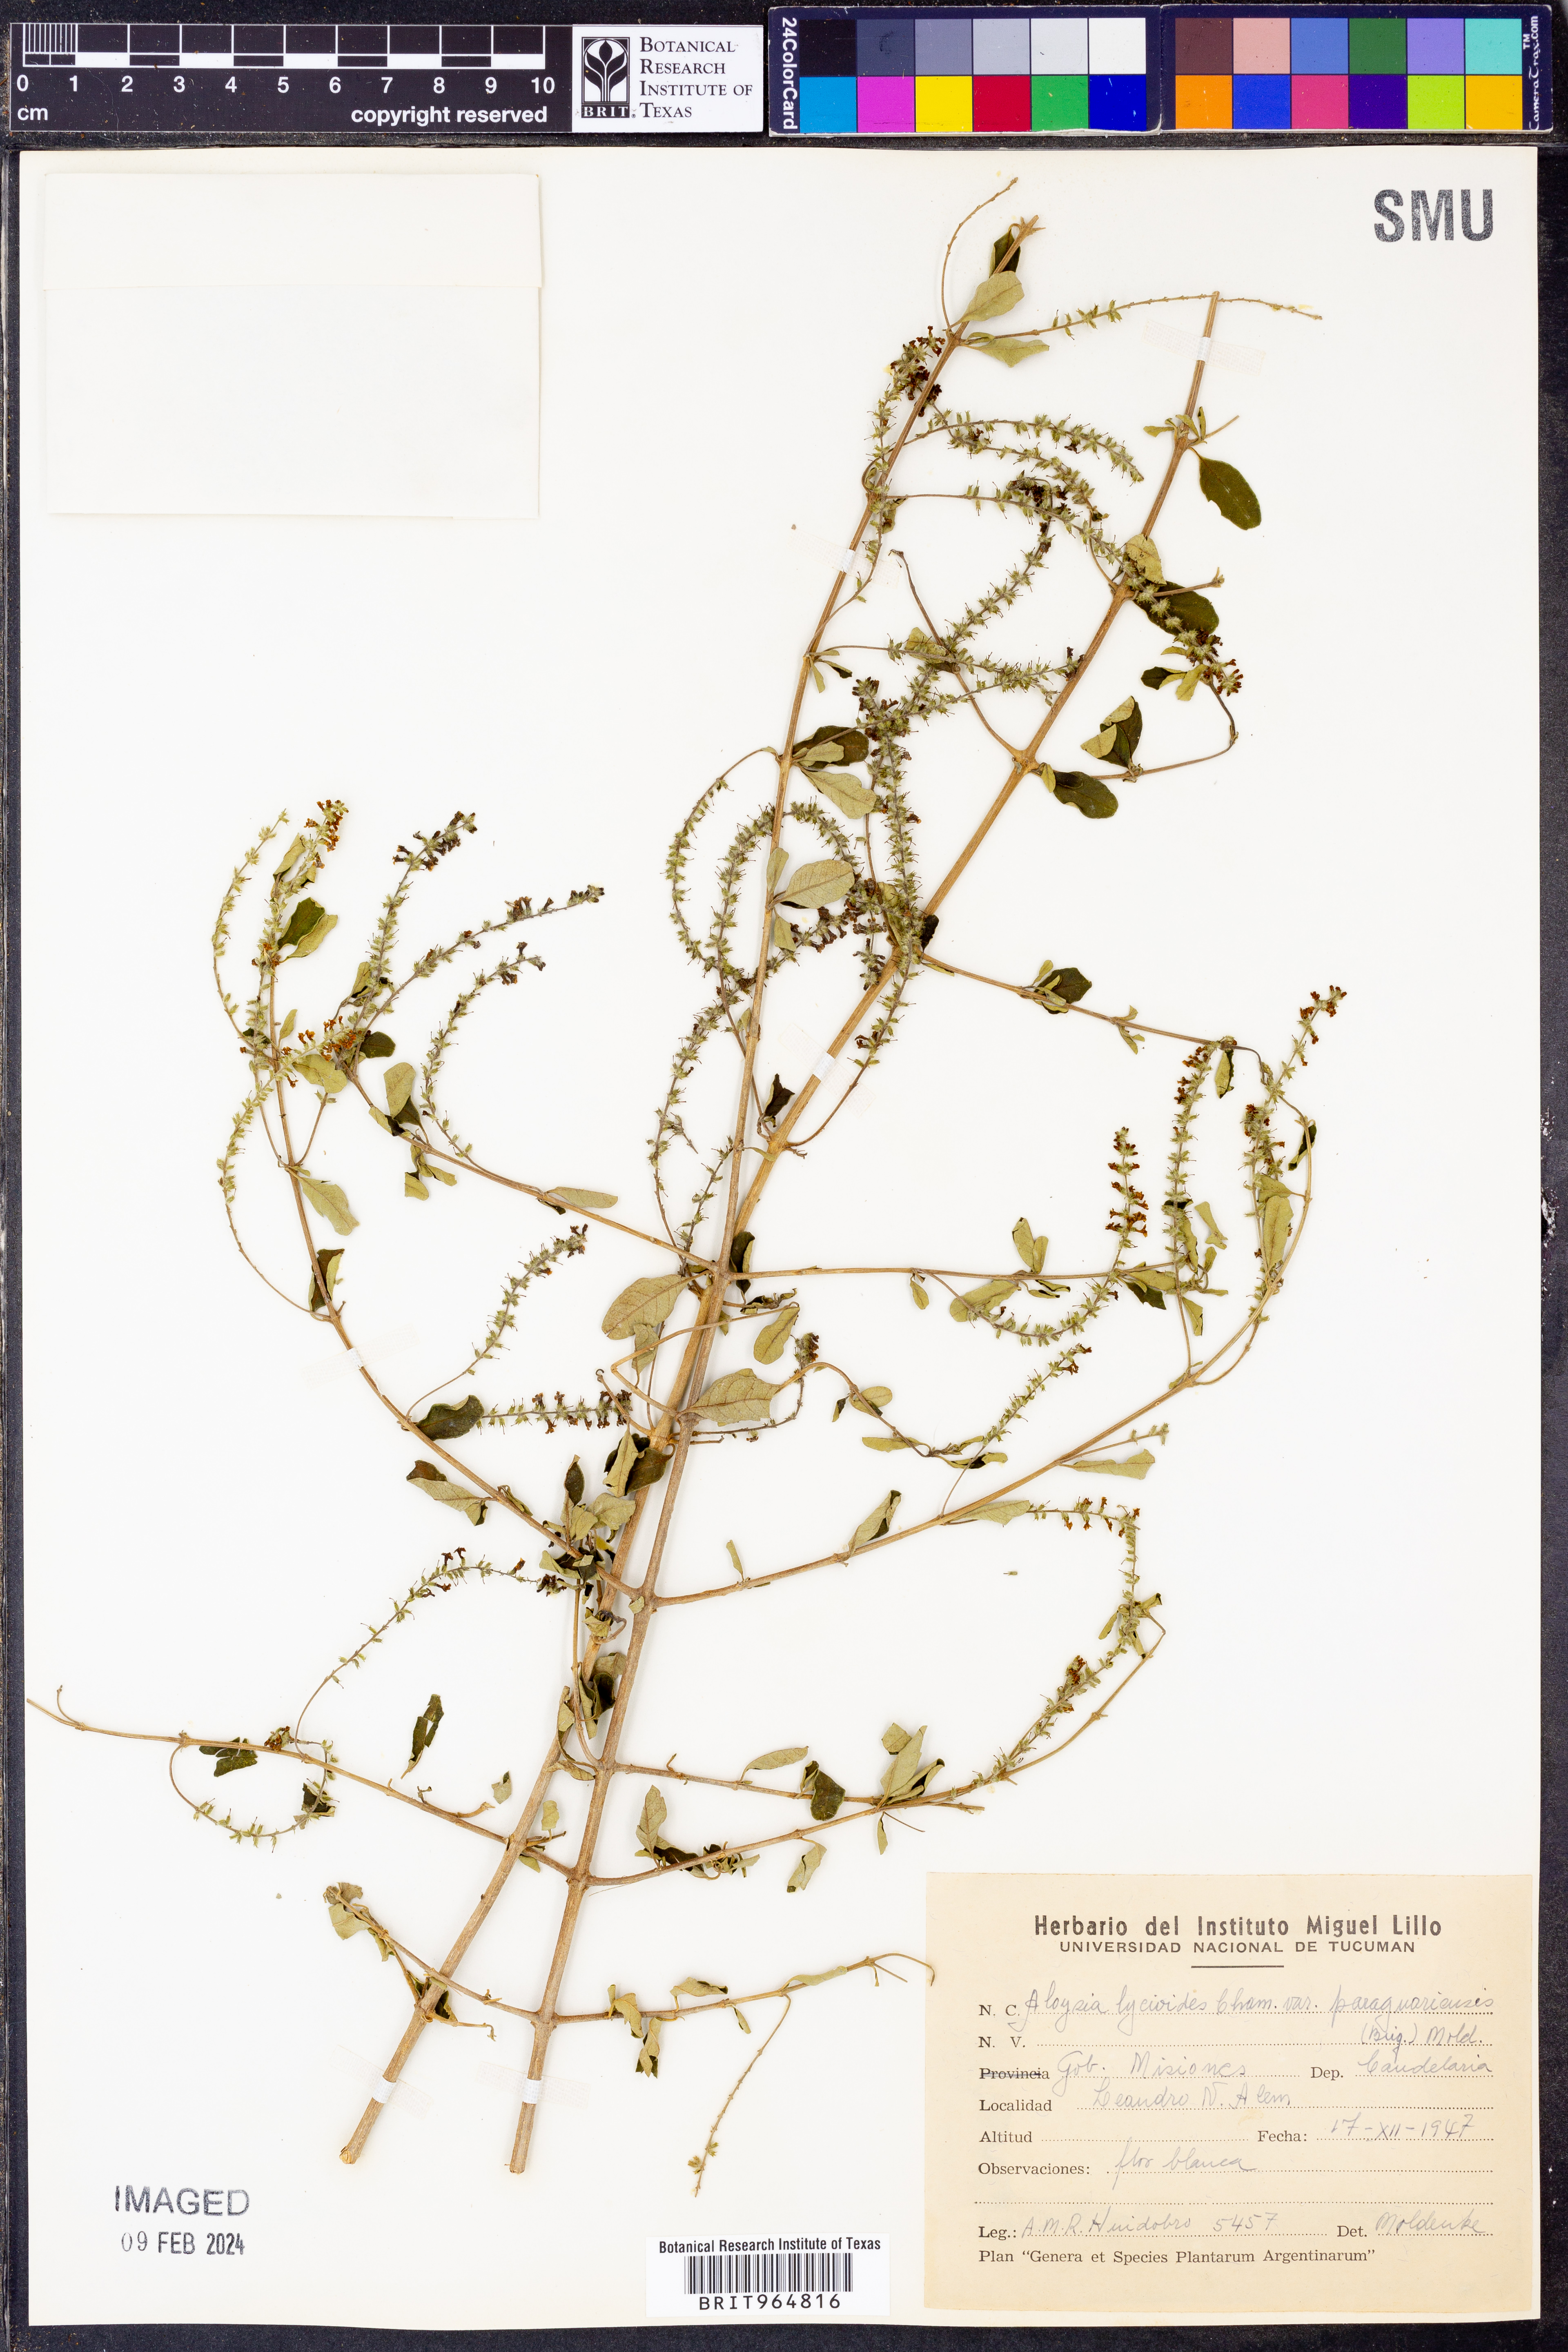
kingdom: Plantae
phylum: Tracheophyta
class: Magnoliopsida
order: Lamiales
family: Verbenaceae
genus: Aloysia
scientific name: Aloysia
